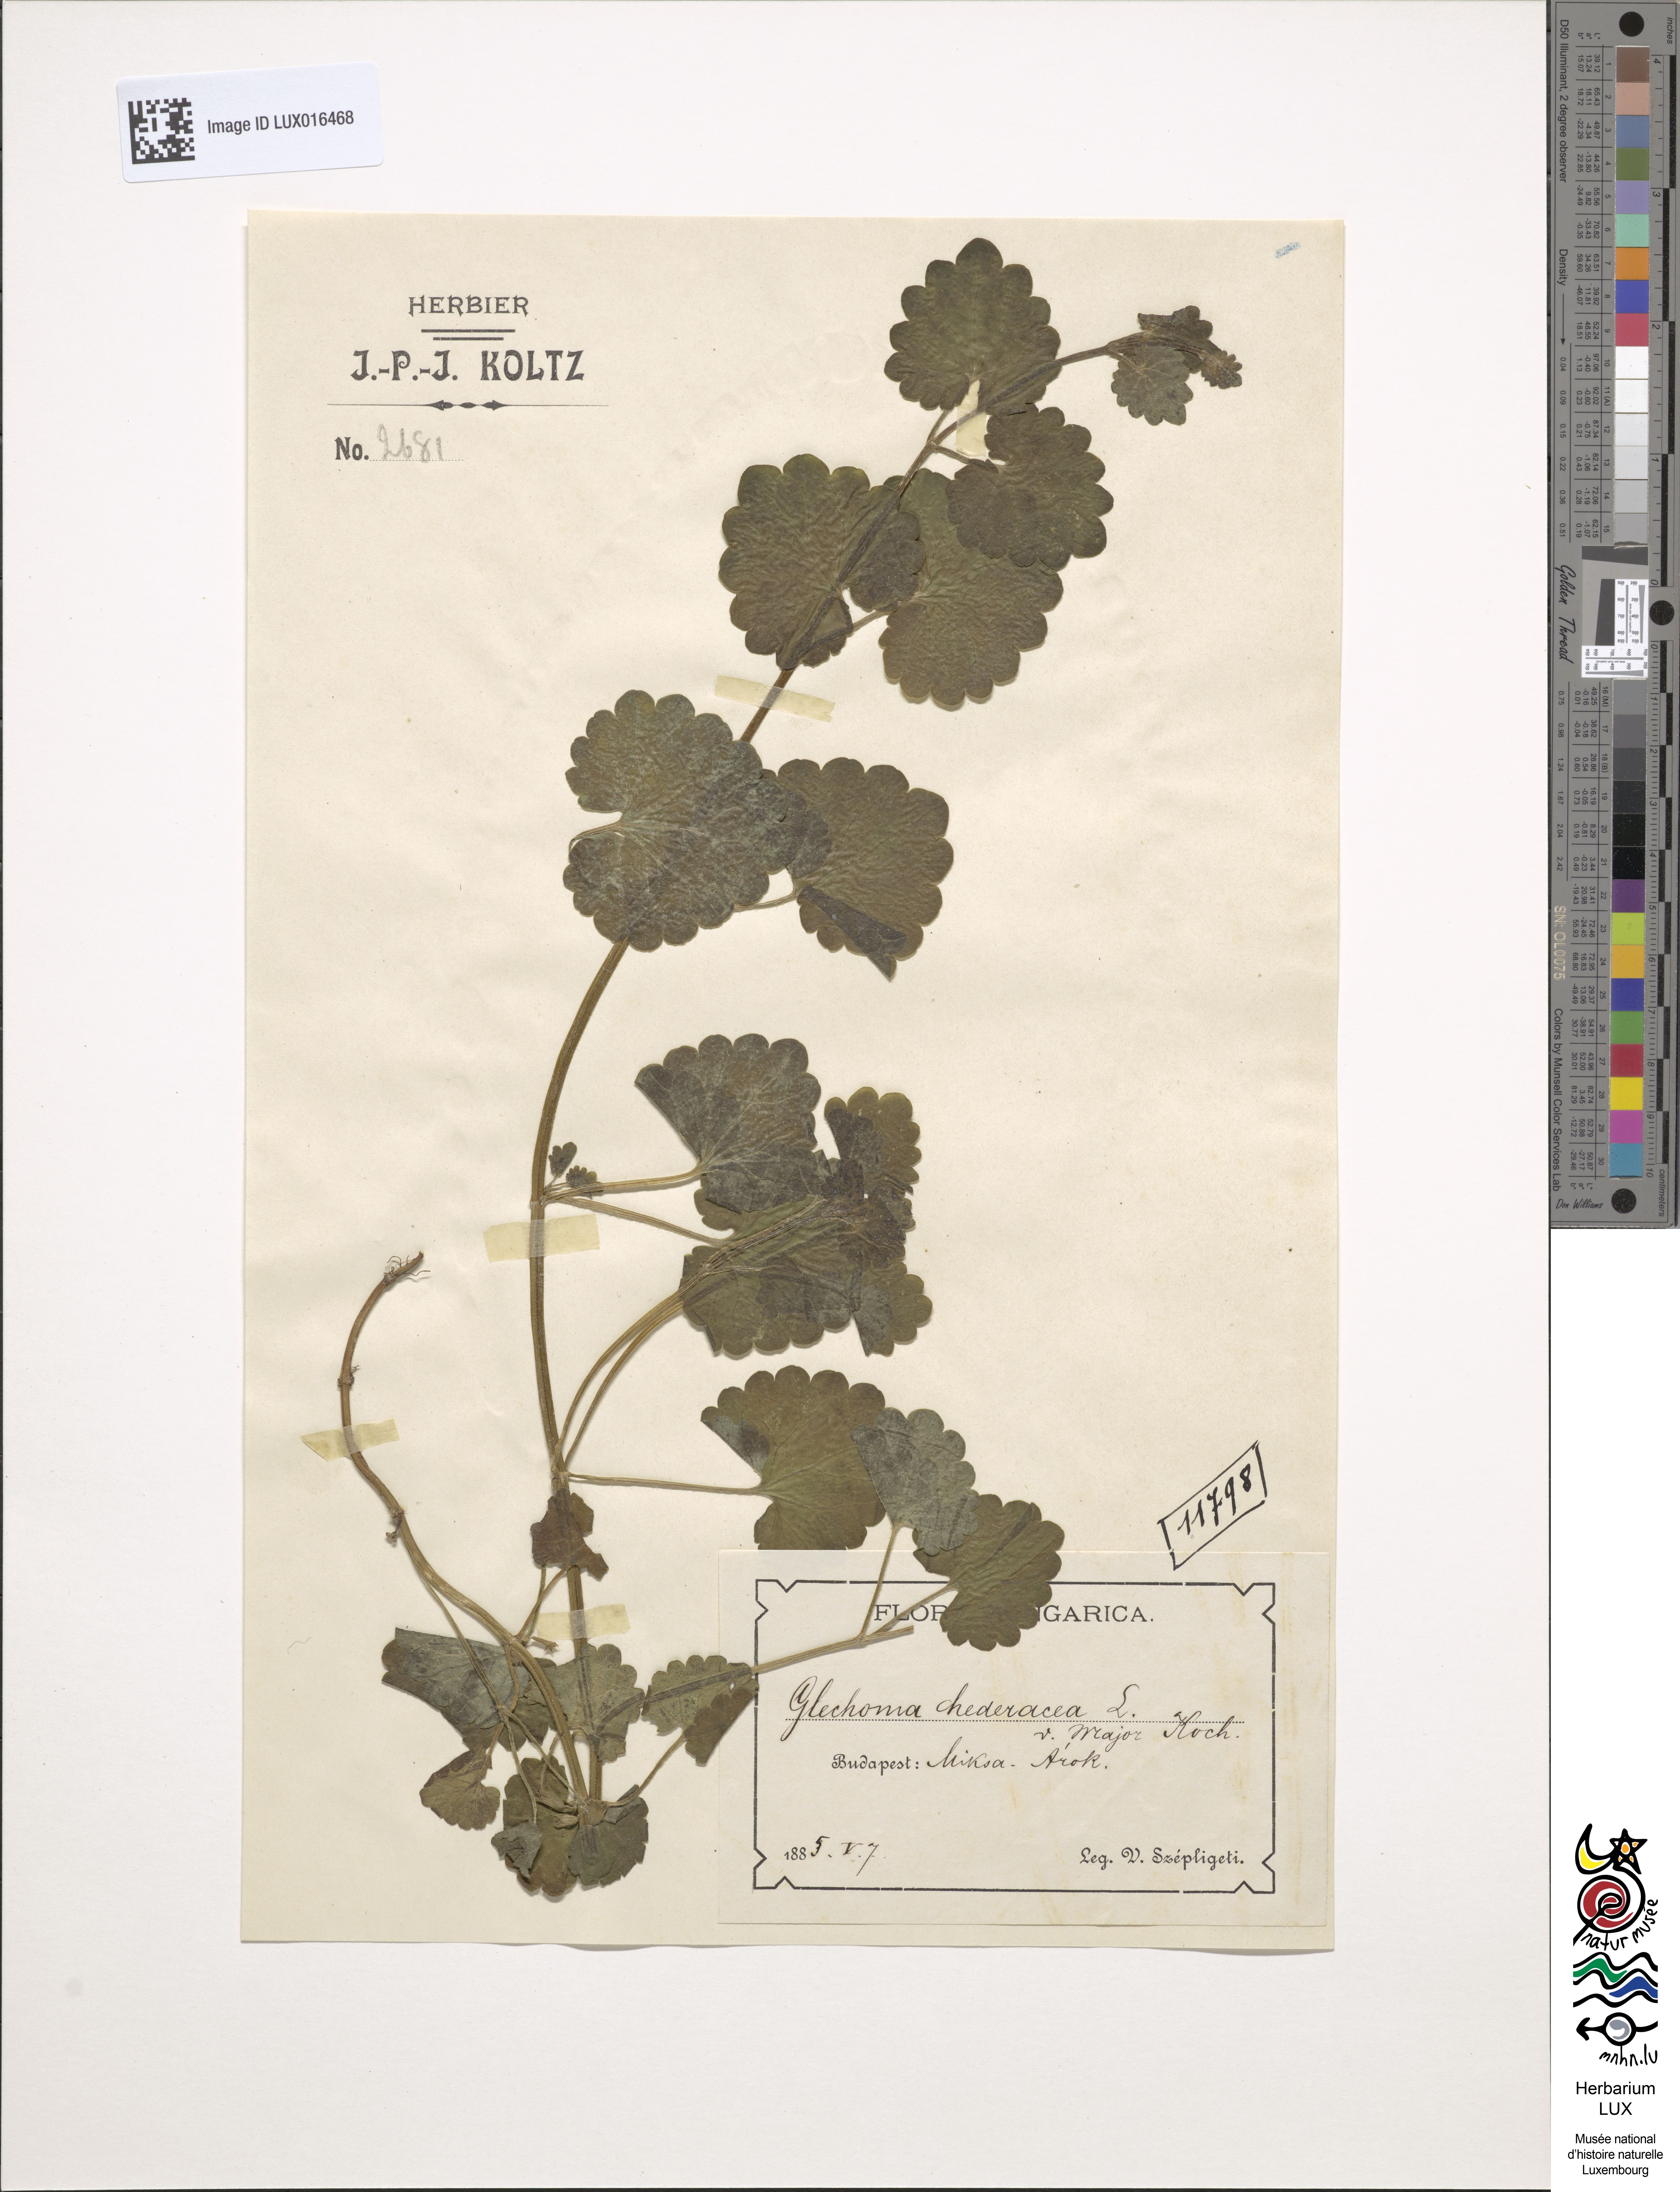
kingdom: Plantae
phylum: Tracheophyta
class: Magnoliopsida
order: Lamiales
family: Lamiaceae
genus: Glechoma
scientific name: Glechoma hederacea
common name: Ground ivy
